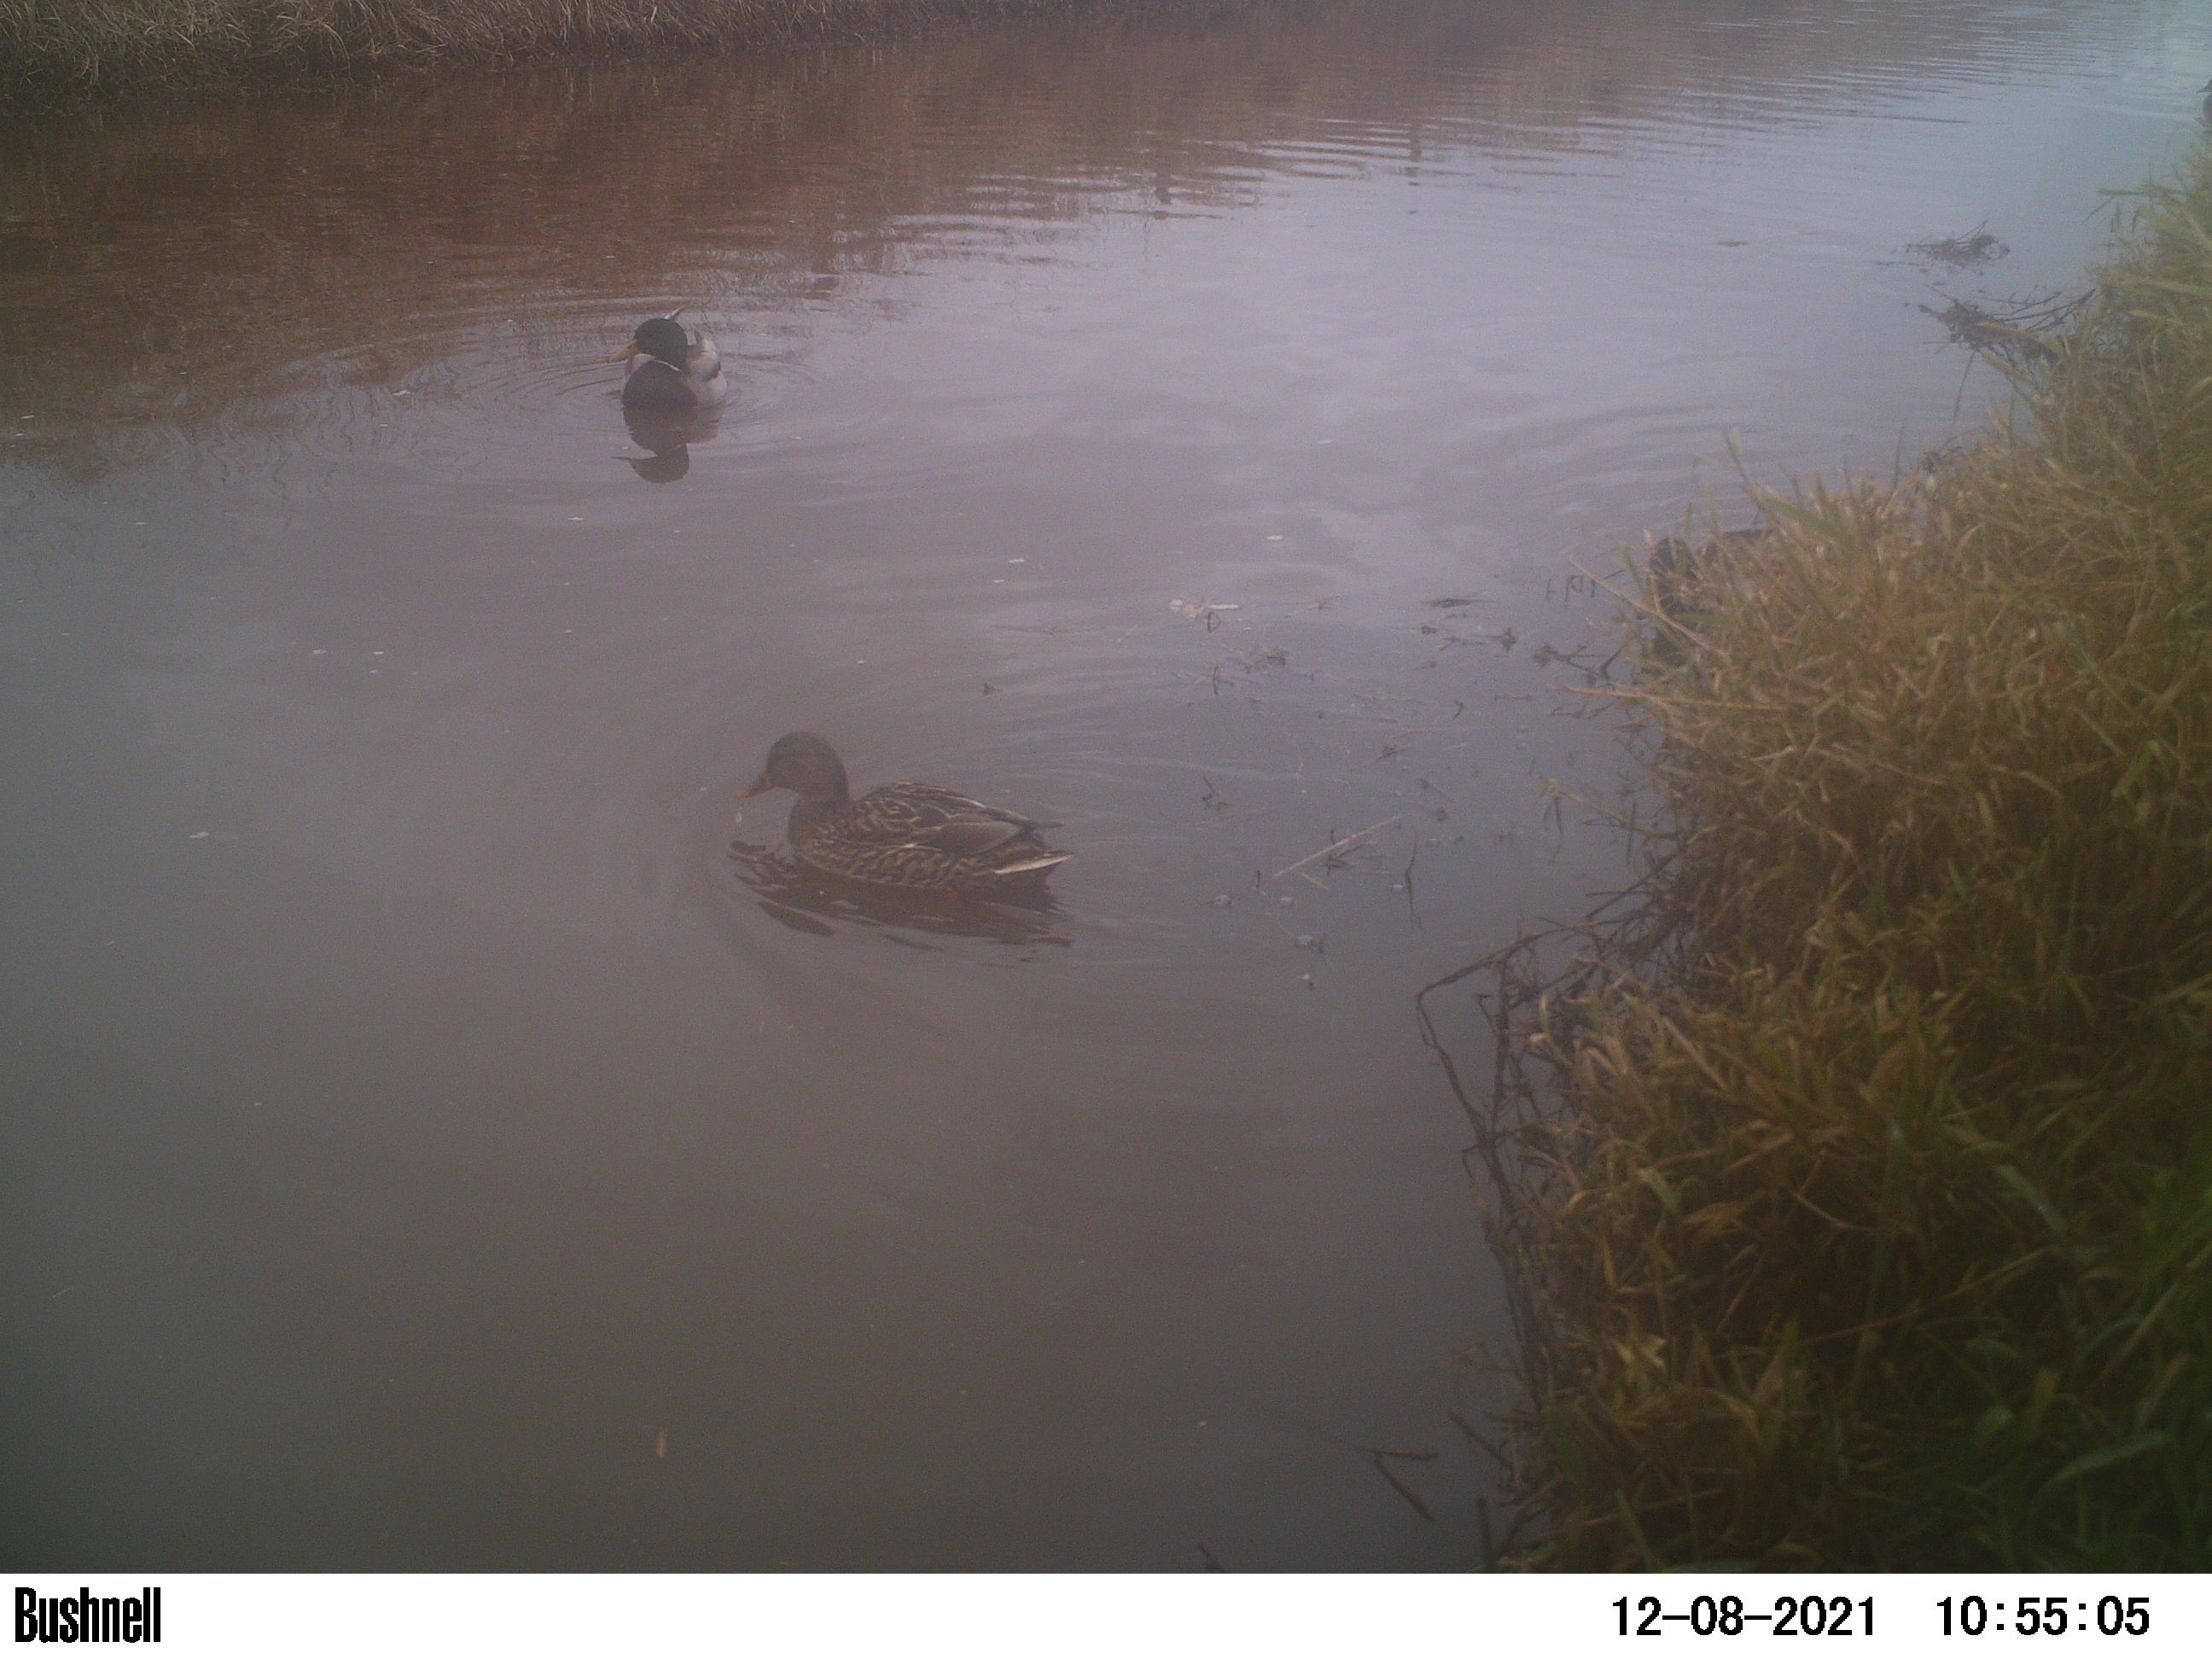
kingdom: Animalia
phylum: Chordata
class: Aves
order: Anseriformes
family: Anatidae
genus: Anas
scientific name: Anas
